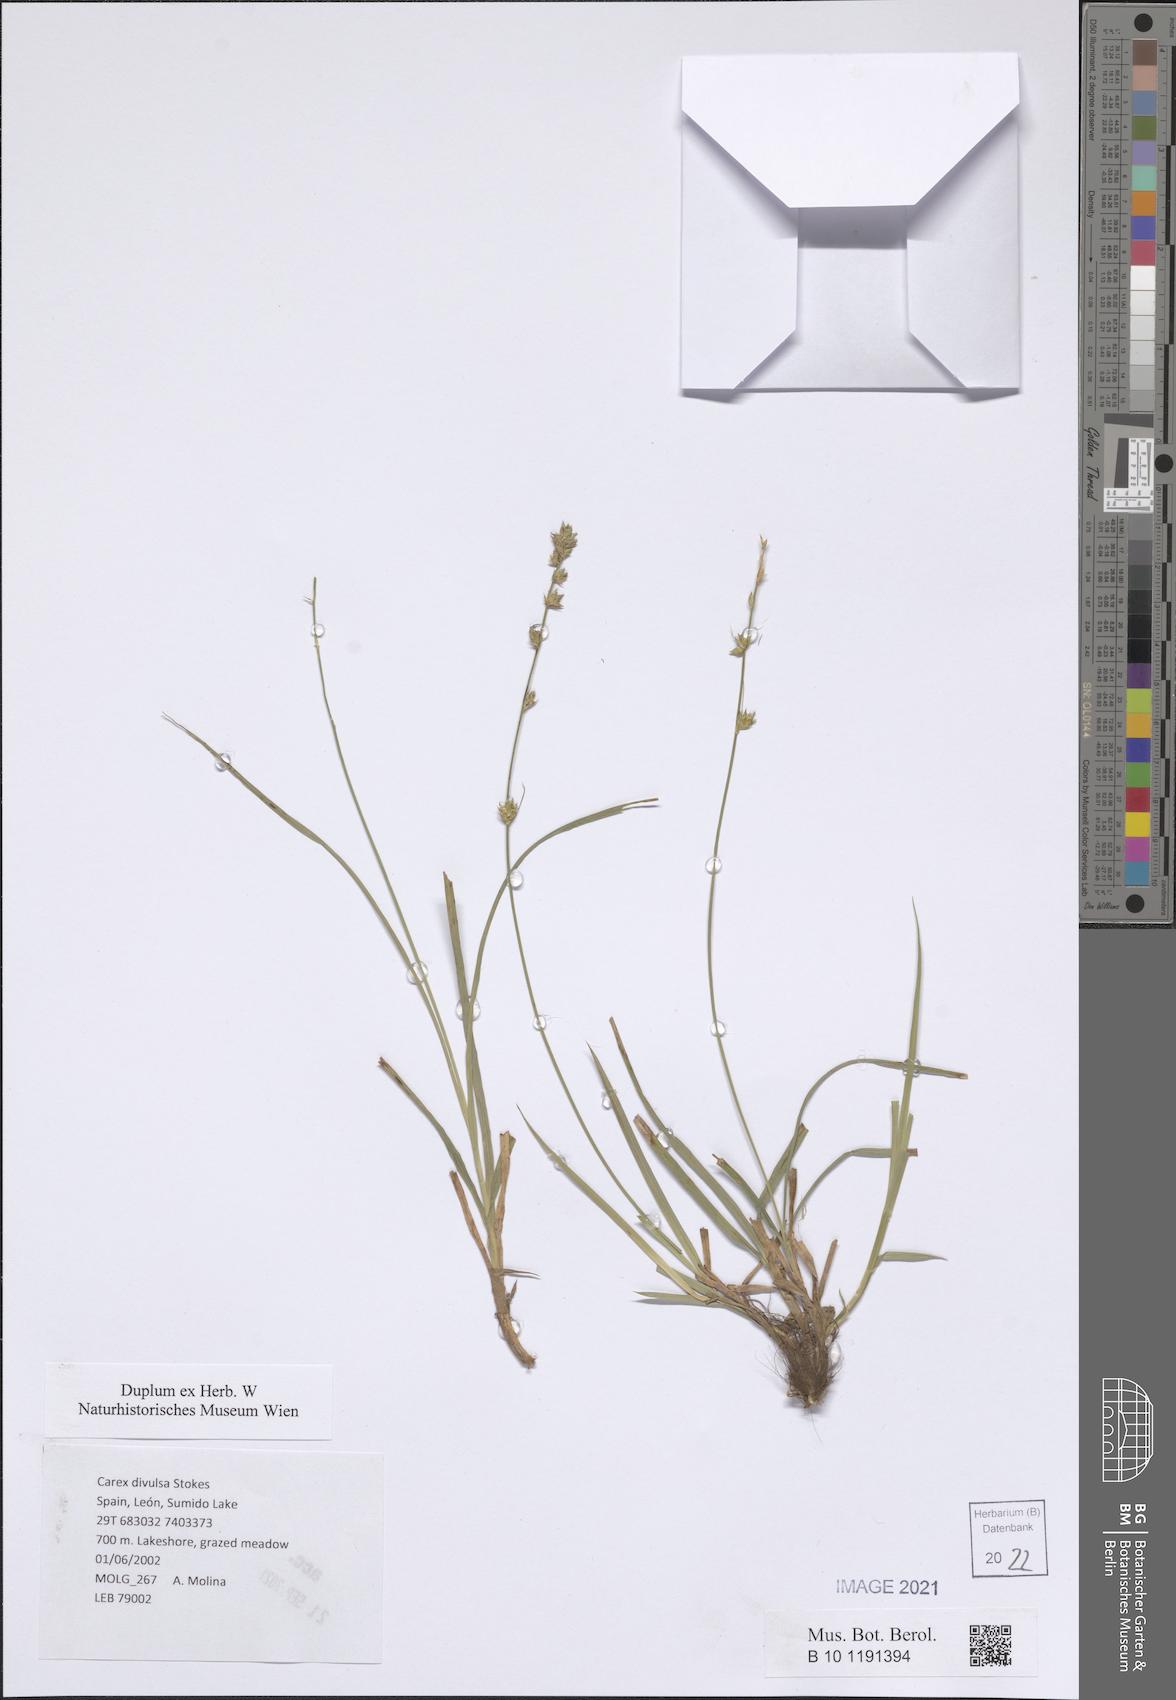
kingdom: Plantae
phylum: Tracheophyta
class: Liliopsida
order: Poales
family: Cyperaceae
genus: Carex
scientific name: Carex divulsa
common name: Grassland sedge
